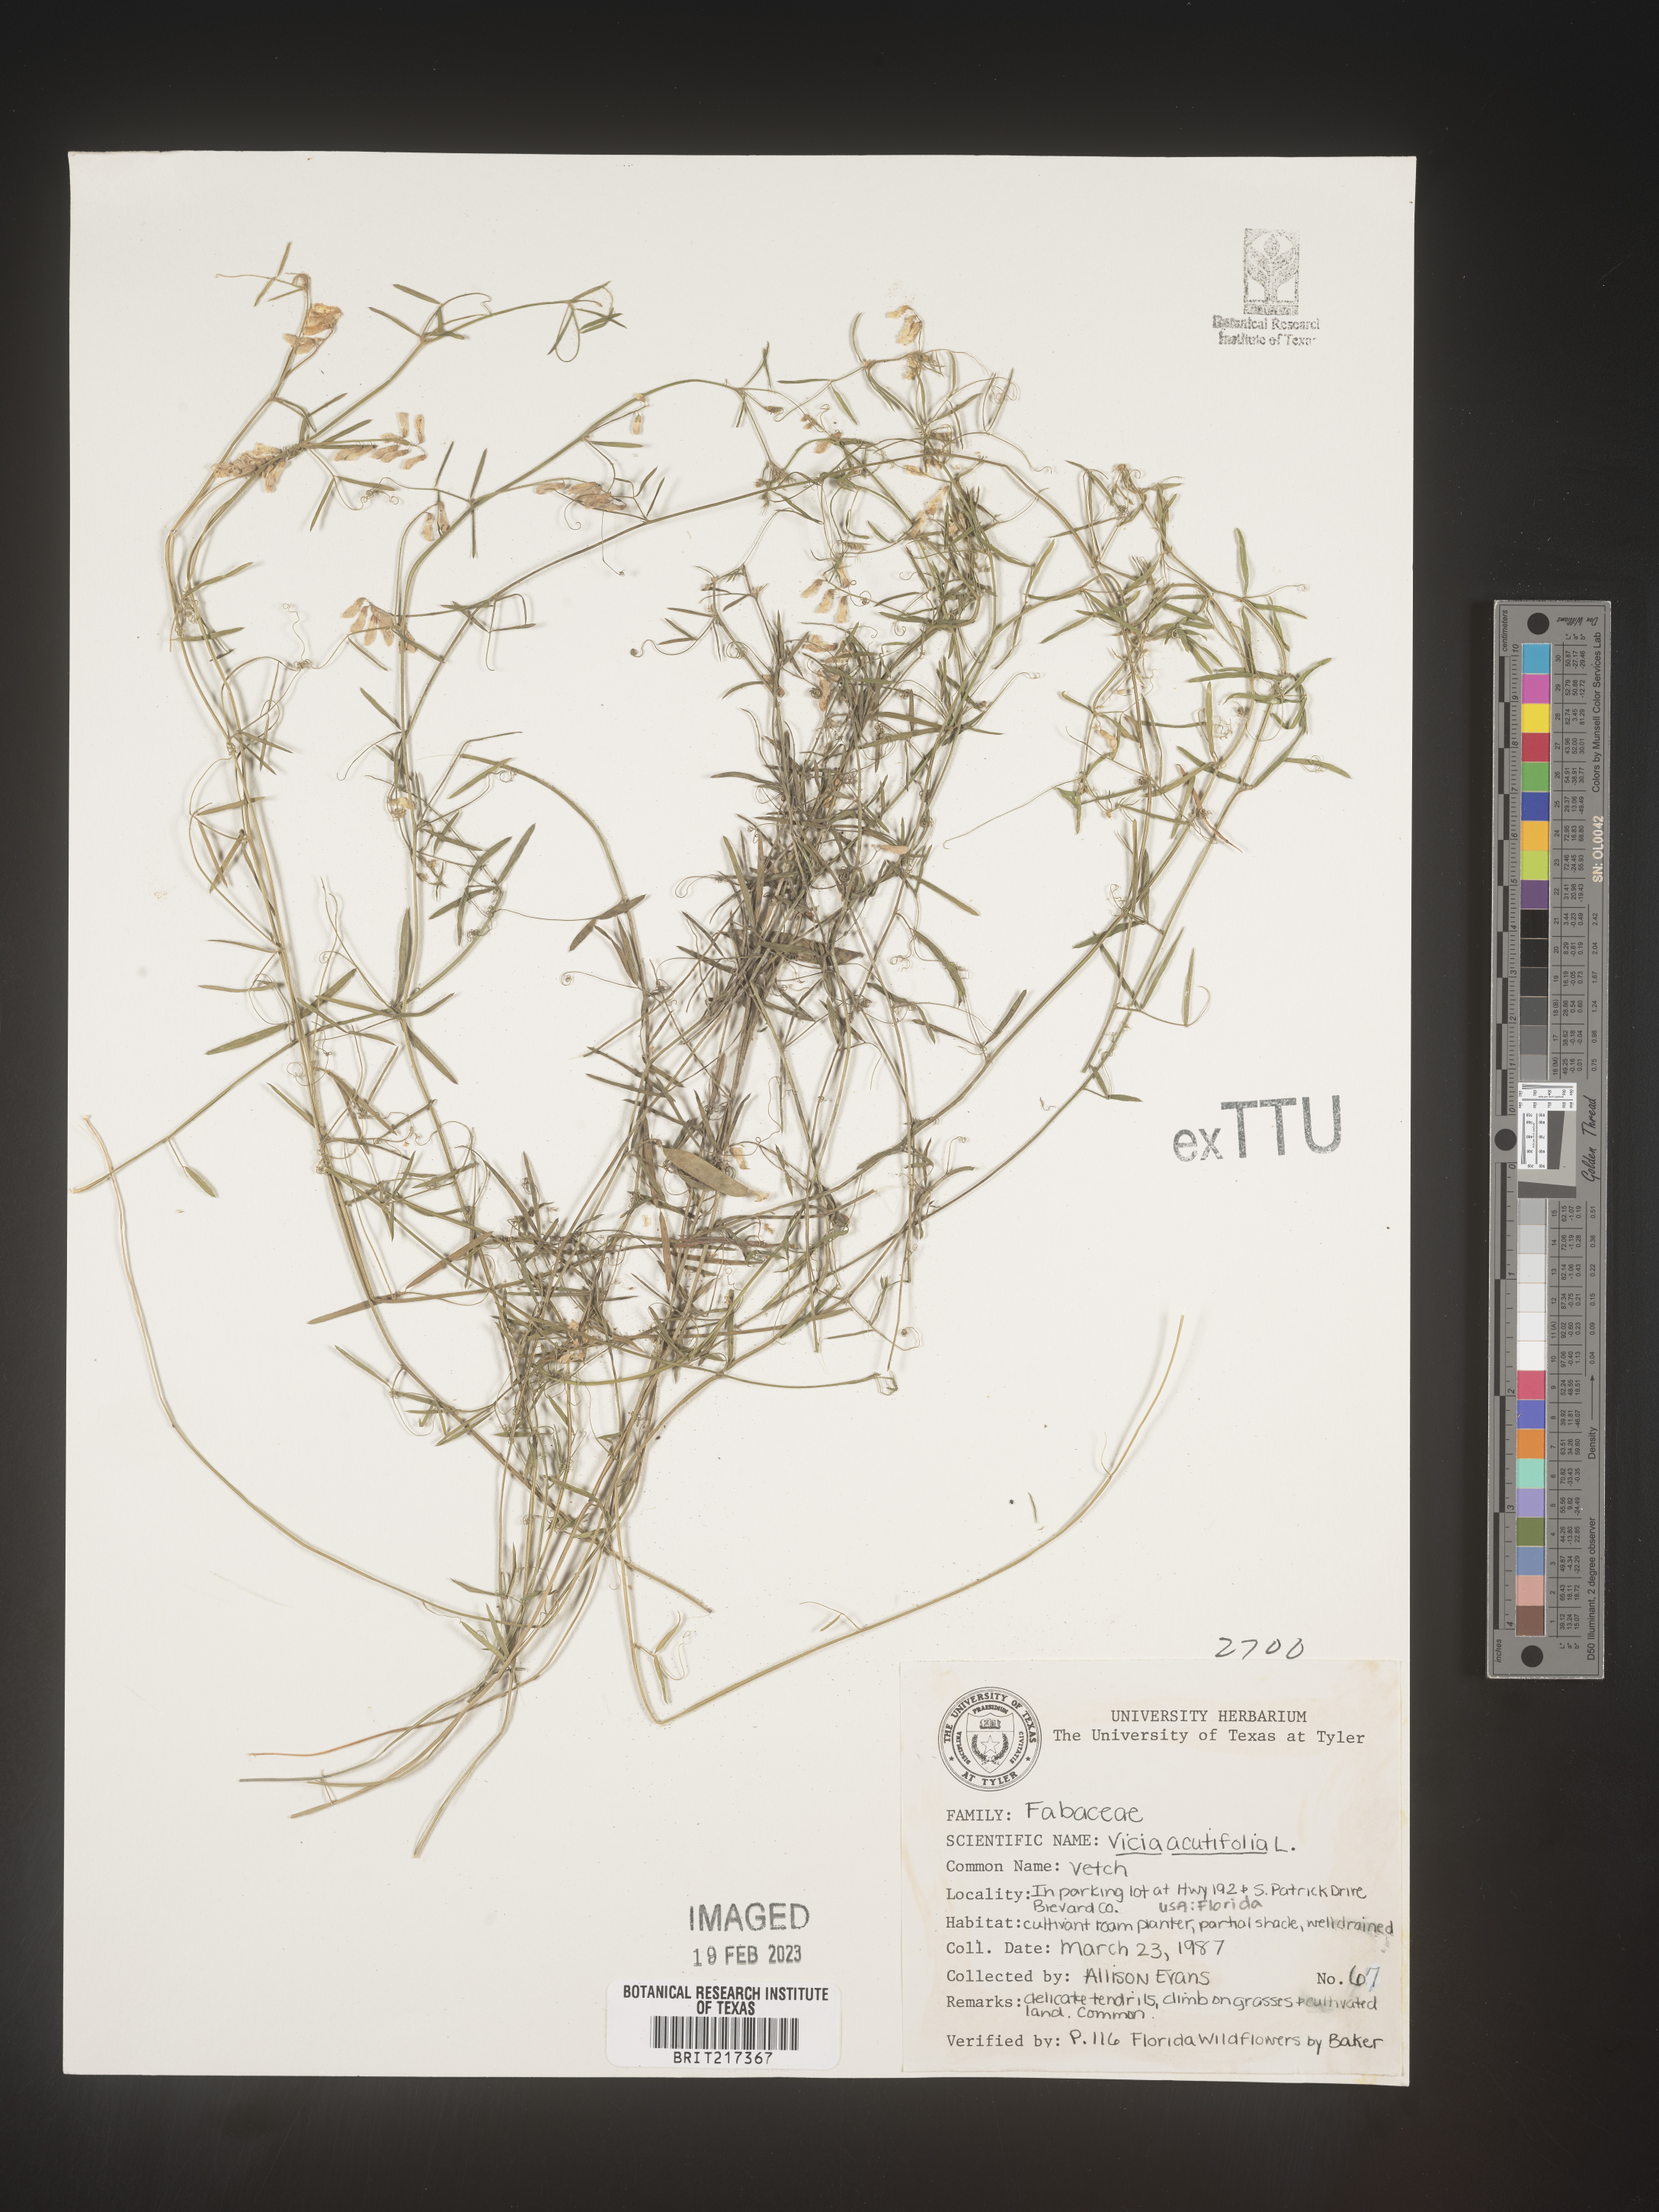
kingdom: Plantae
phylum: Tracheophyta
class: Magnoliopsida
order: Fabales
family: Fabaceae
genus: Vicia
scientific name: Vicia acutifolia
